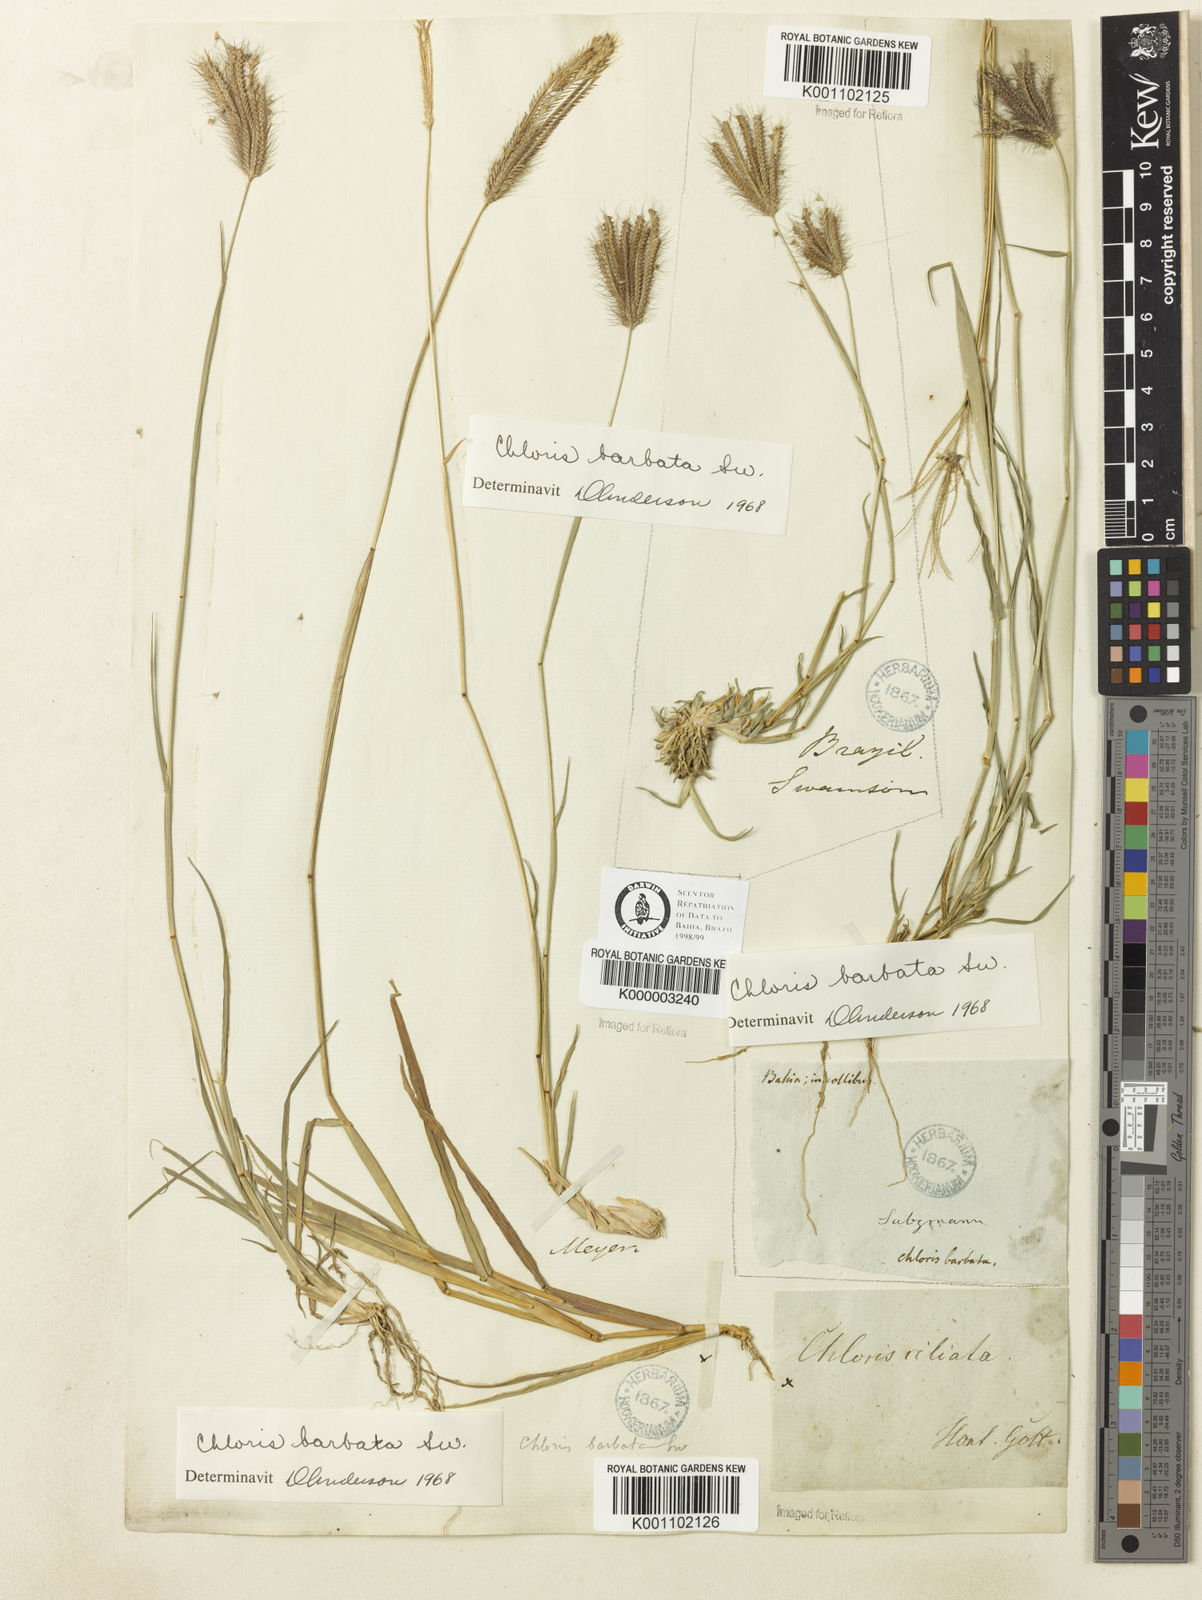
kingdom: Plantae
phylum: Tracheophyta
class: Liliopsida
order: Poales
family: Poaceae
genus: Chloris
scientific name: Chloris barbata
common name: Swollen fingergrass
